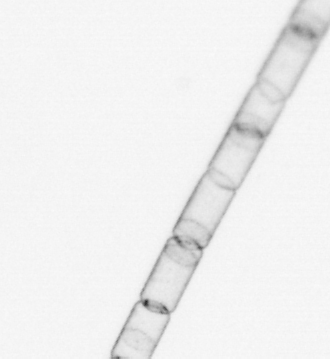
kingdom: Chromista
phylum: Ochrophyta
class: Bacillariophyceae
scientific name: Bacillariophyceae
